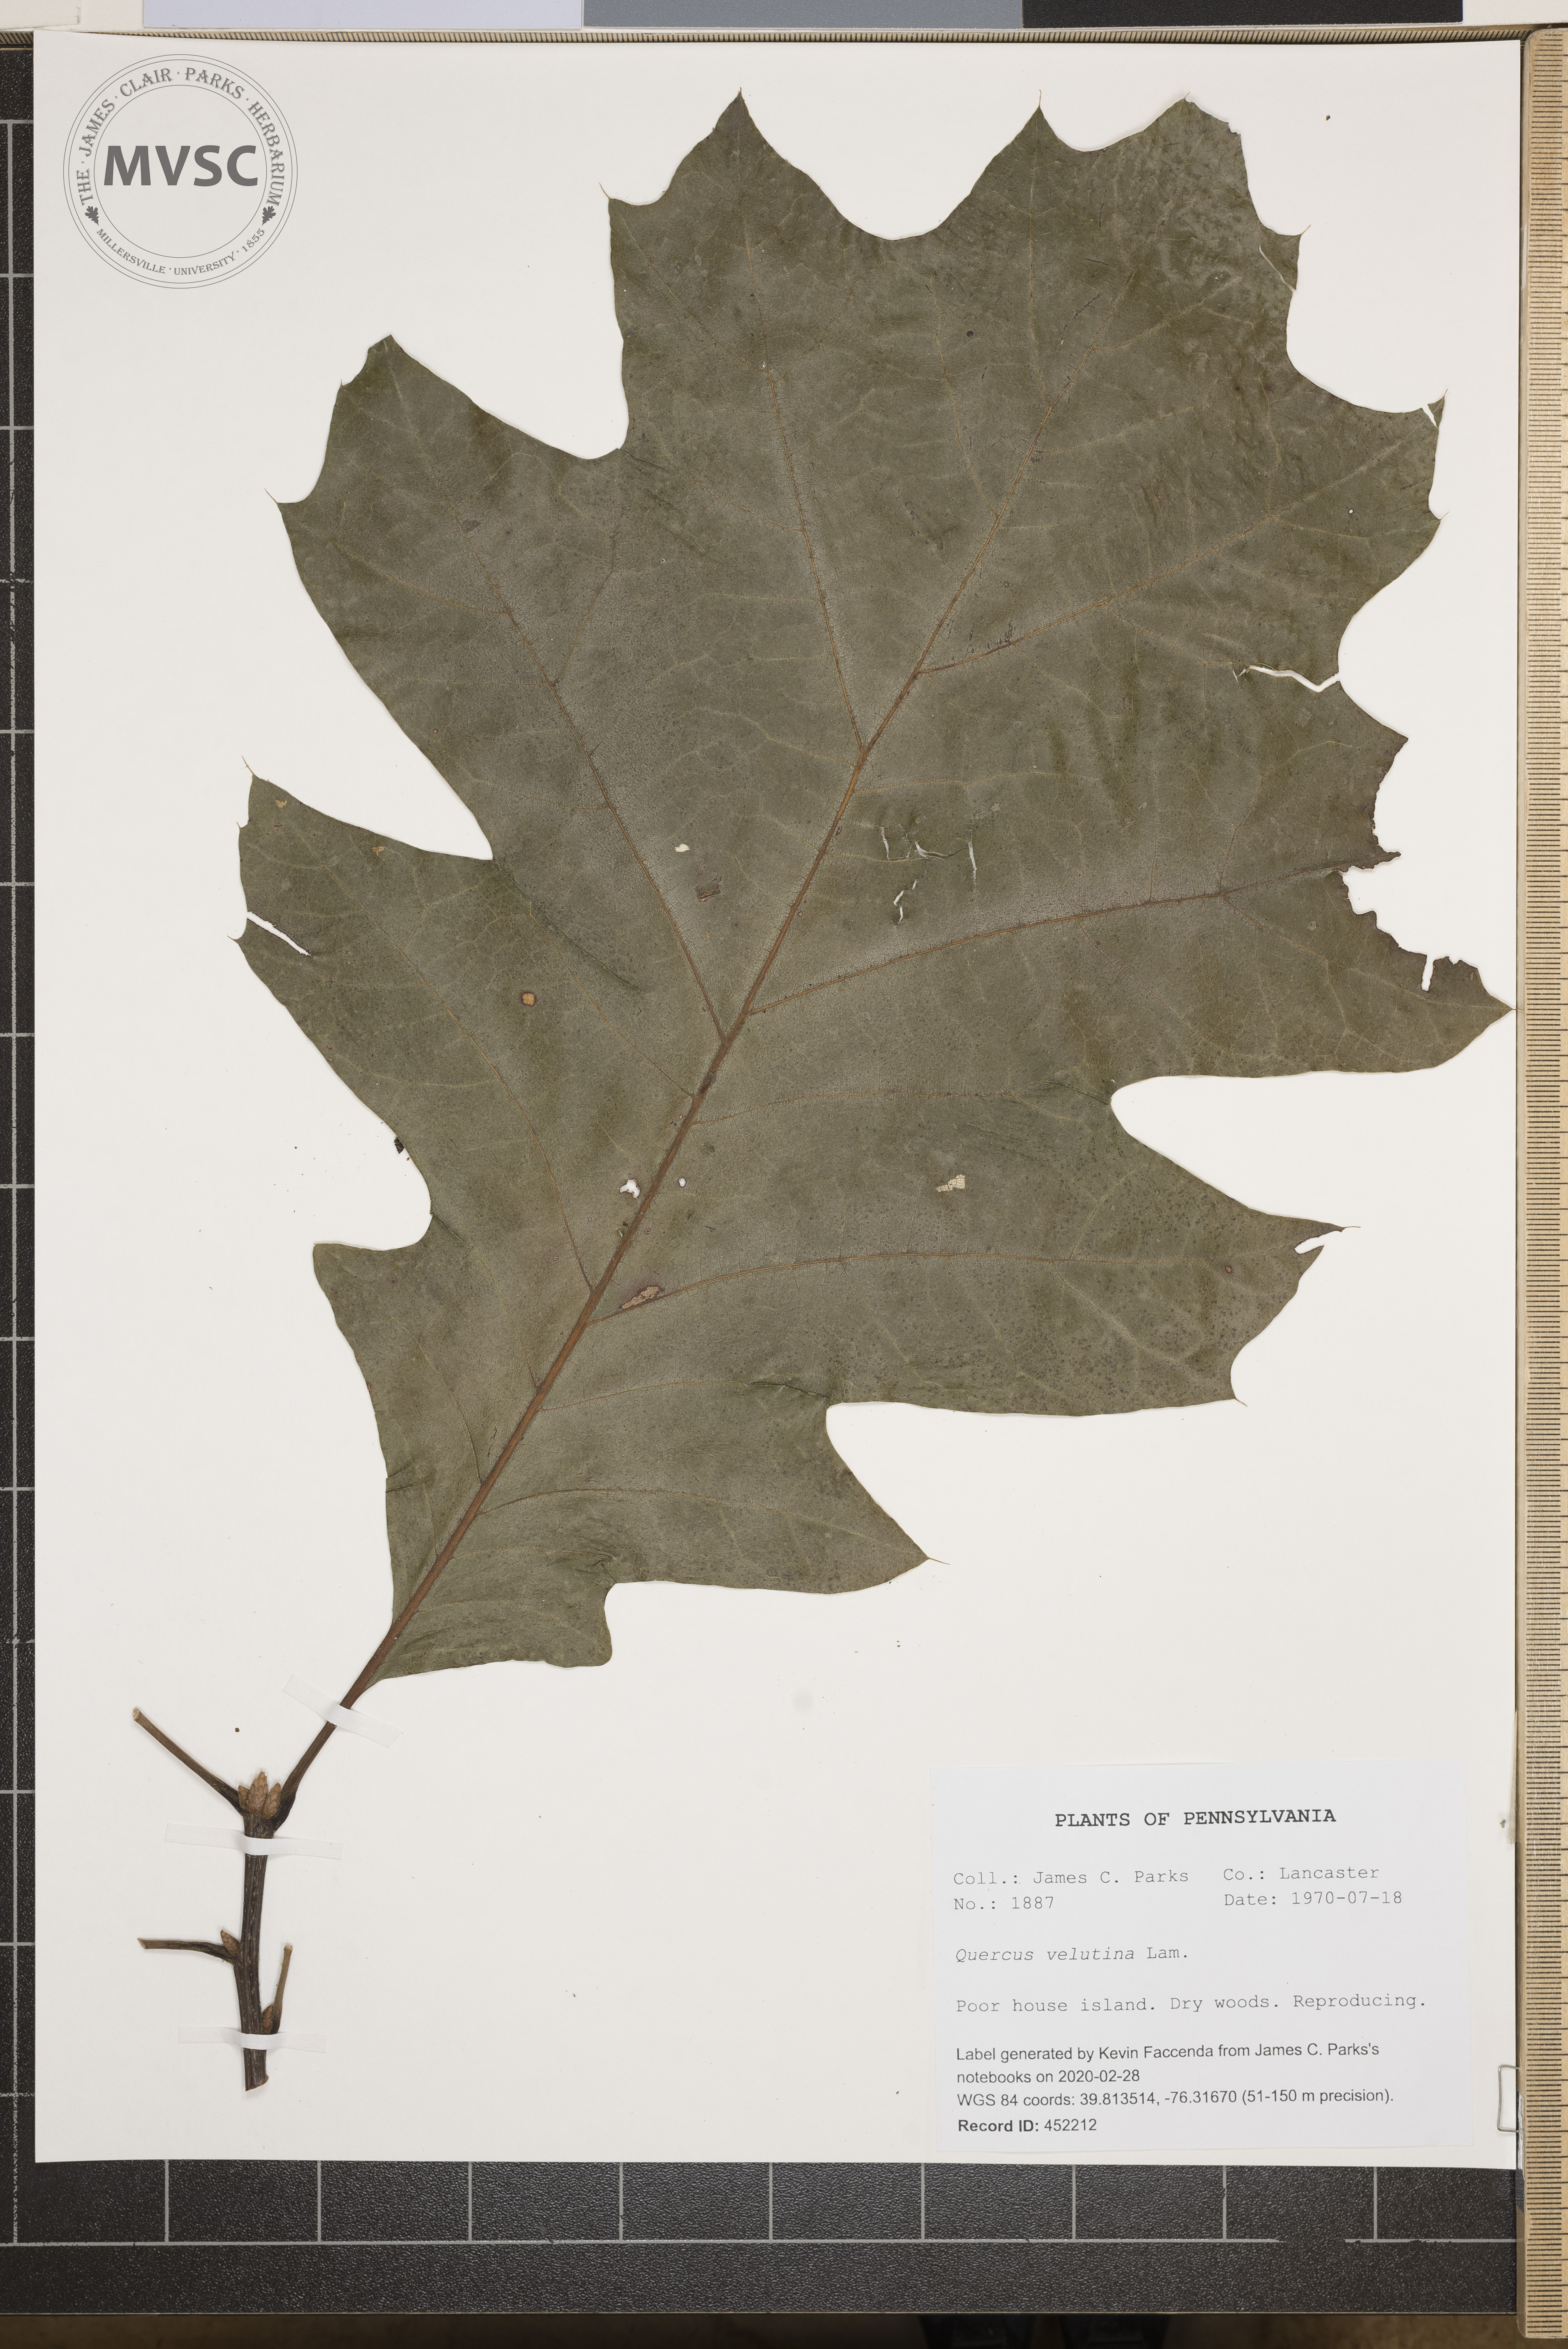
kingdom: Plantae
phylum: Tracheophyta
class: Magnoliopsida
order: Fagales
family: Fagaceae
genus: Quercus
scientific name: Quercus velutina
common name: Black oak
